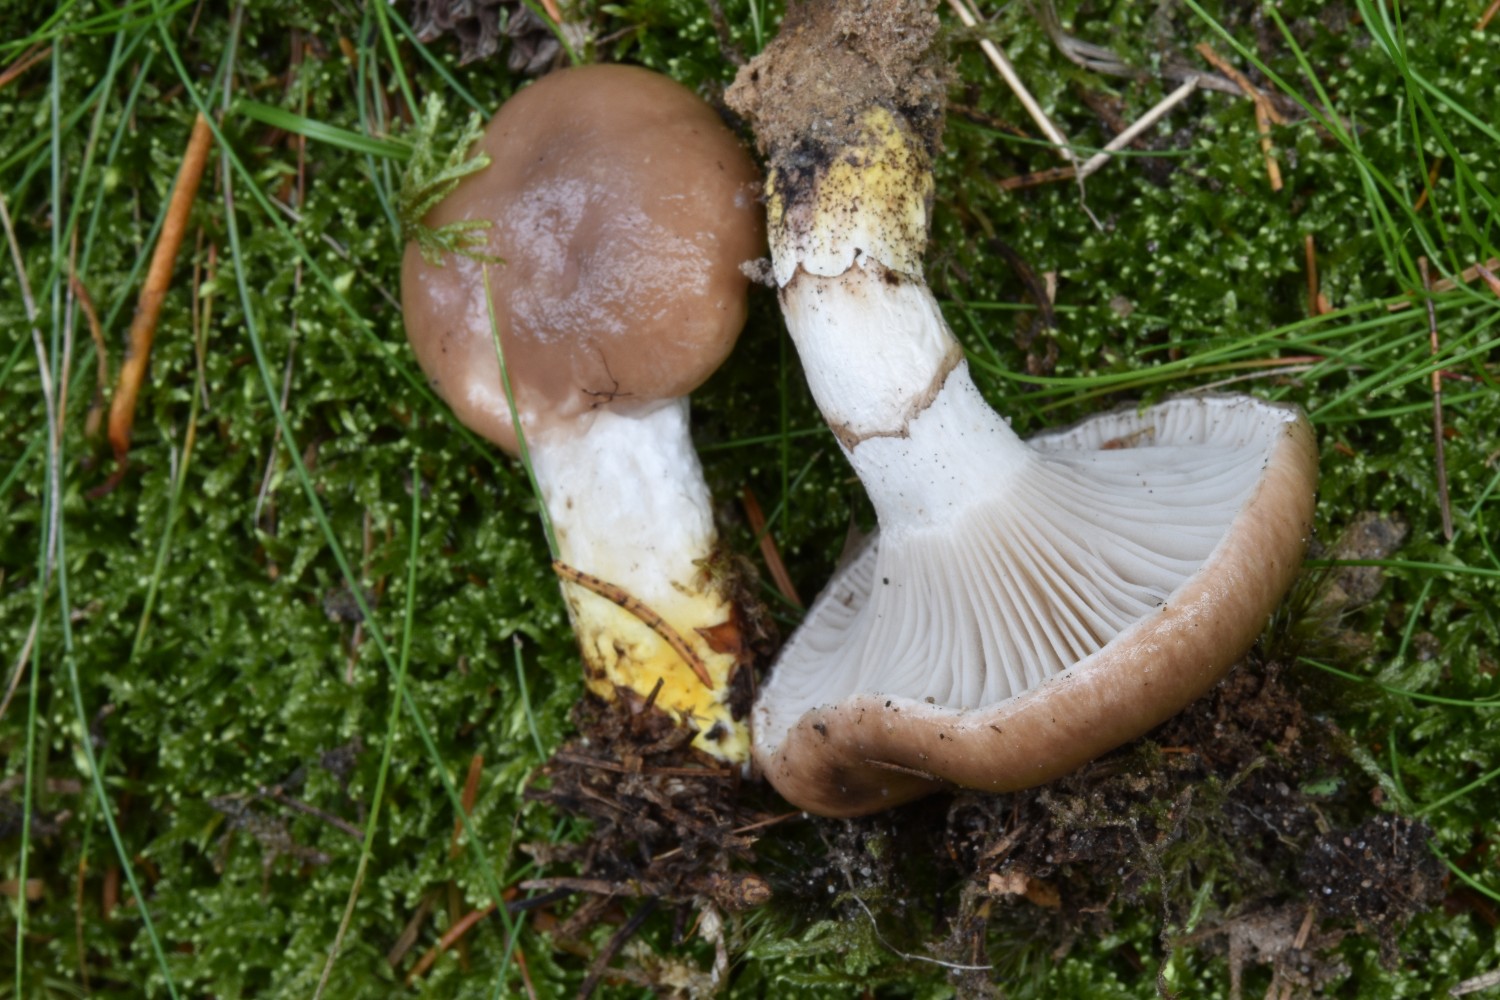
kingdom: Fungi
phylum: Basidiomycota
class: Agaricomycetes
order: Boletales
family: Gomphidiaceae
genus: Gomphidius
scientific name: Gomphidius glutinosus
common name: grå slimslør
